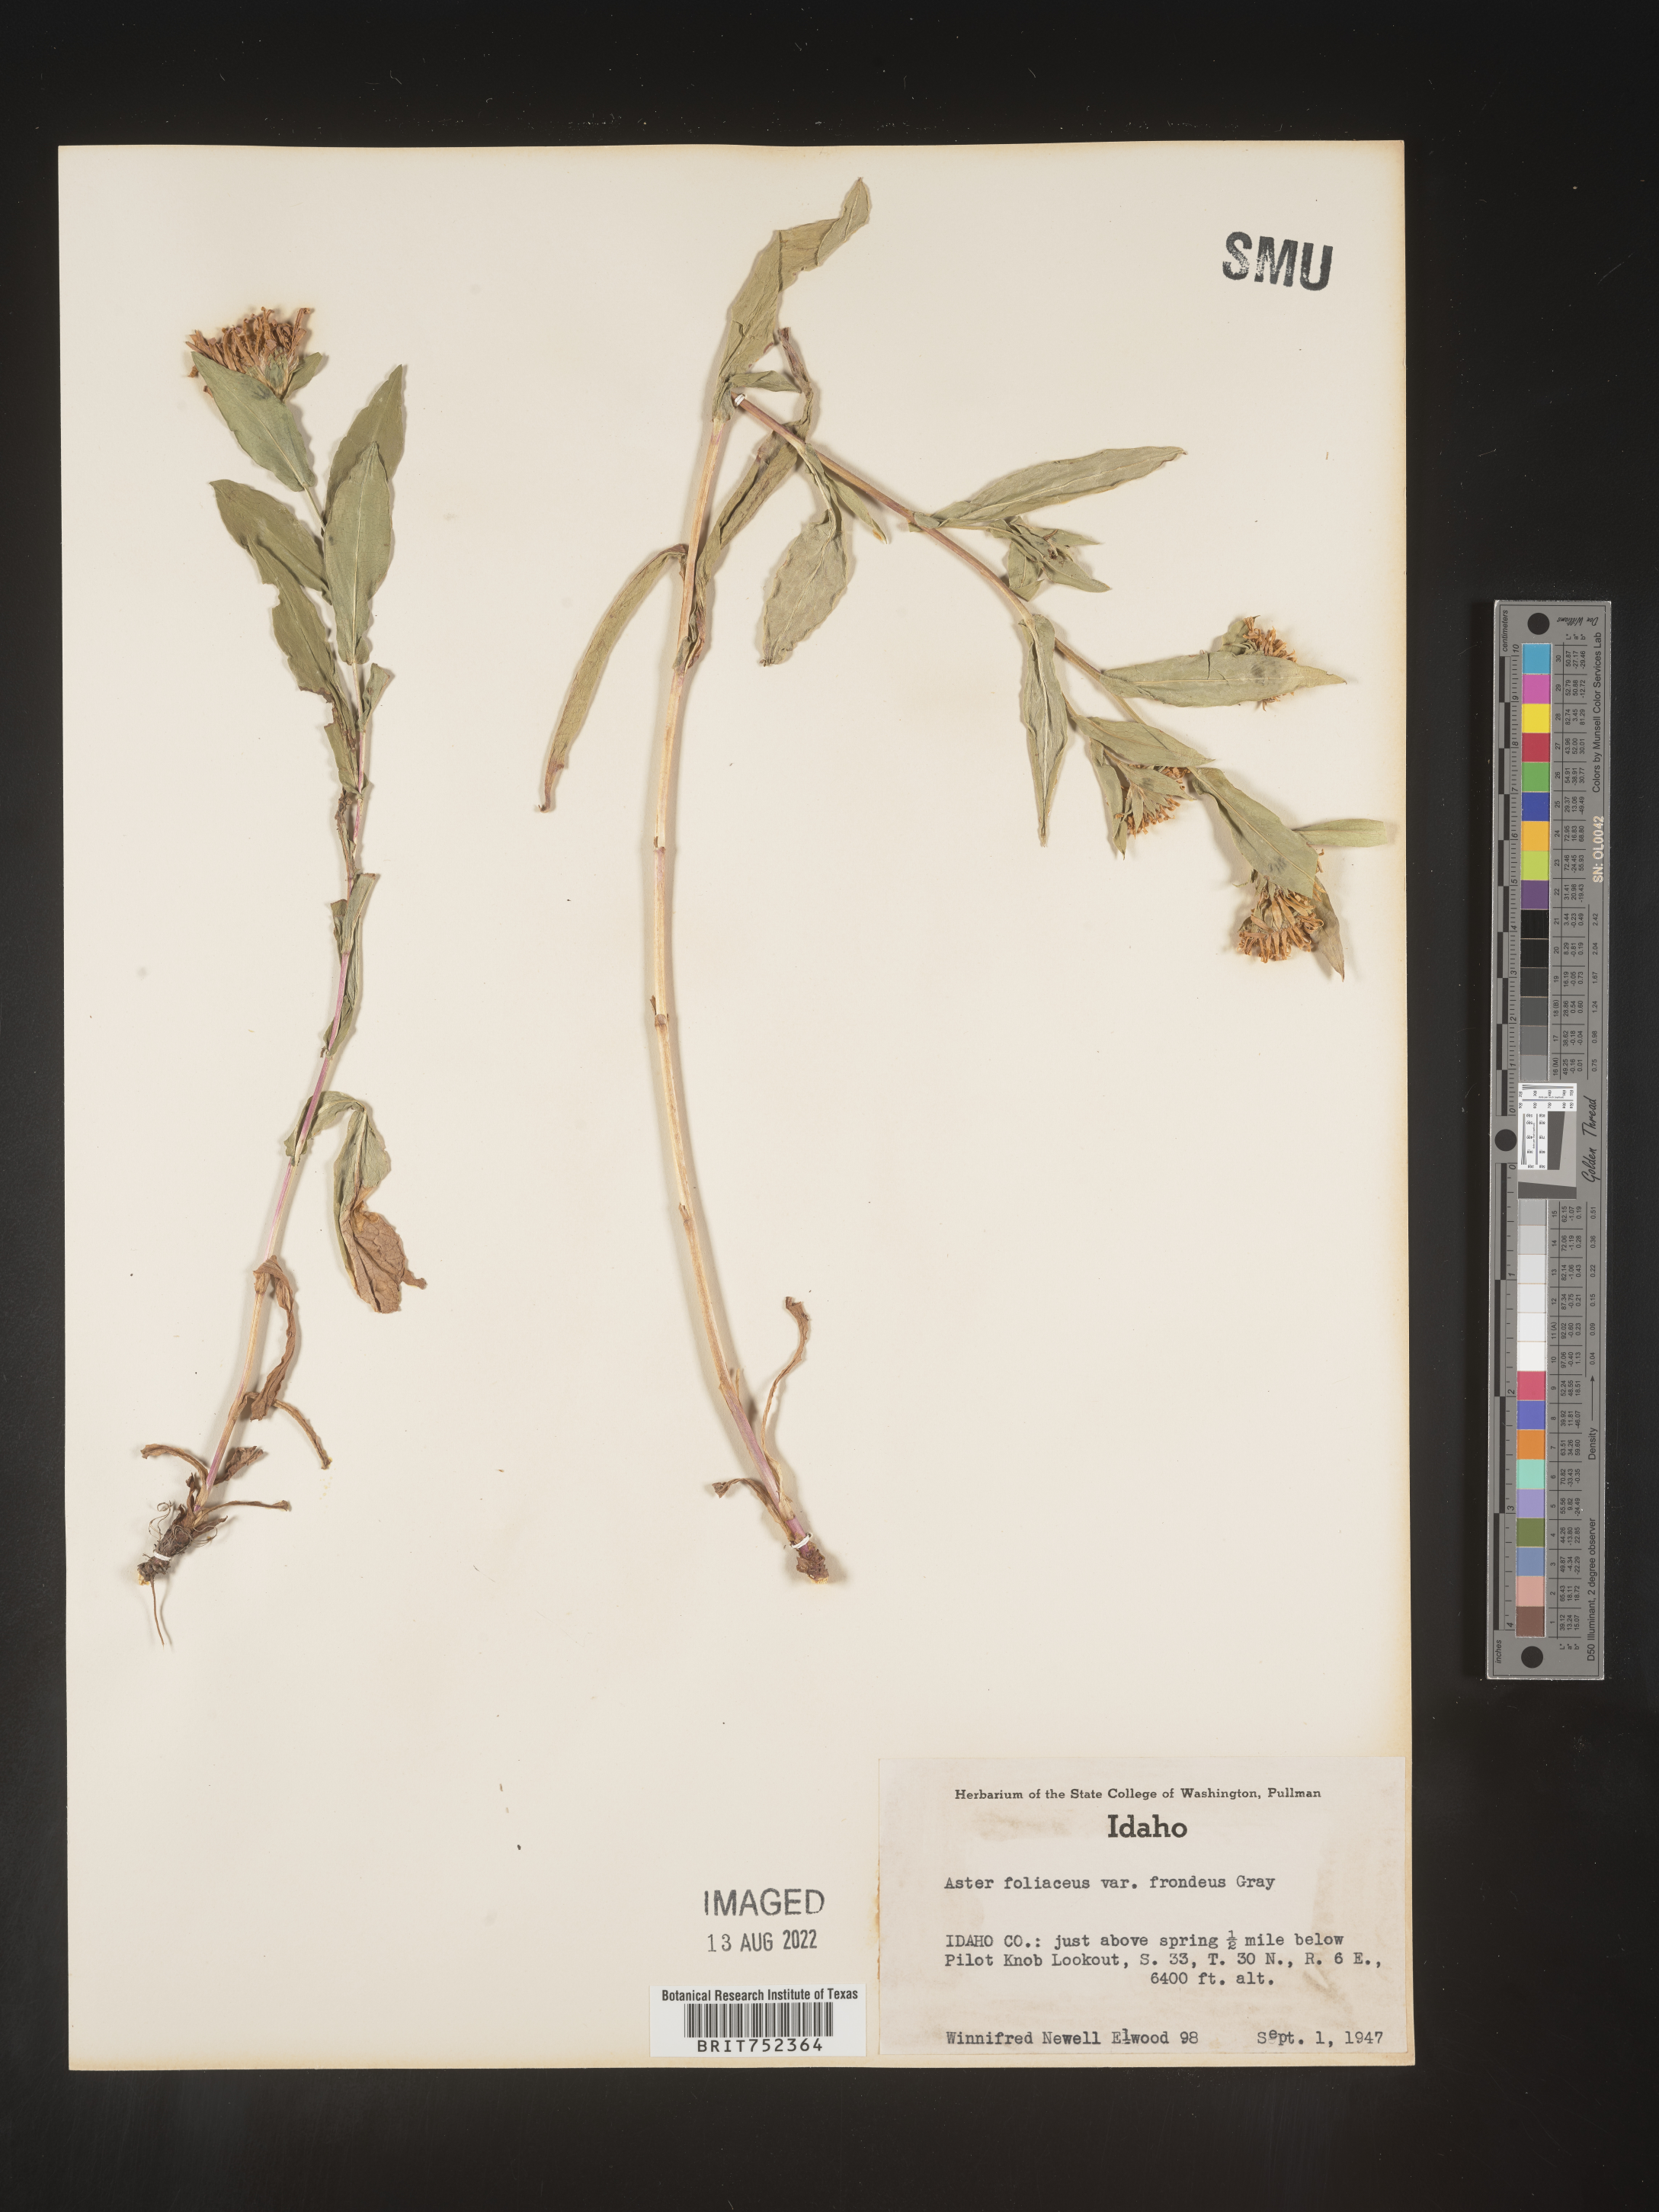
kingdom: Plantae
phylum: Tracheophyta
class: Magnoliopsida
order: Asterales
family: Asteraceae
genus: Symphyotrichum
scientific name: Symphyotrichum foliaceum
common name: Leafy aster
